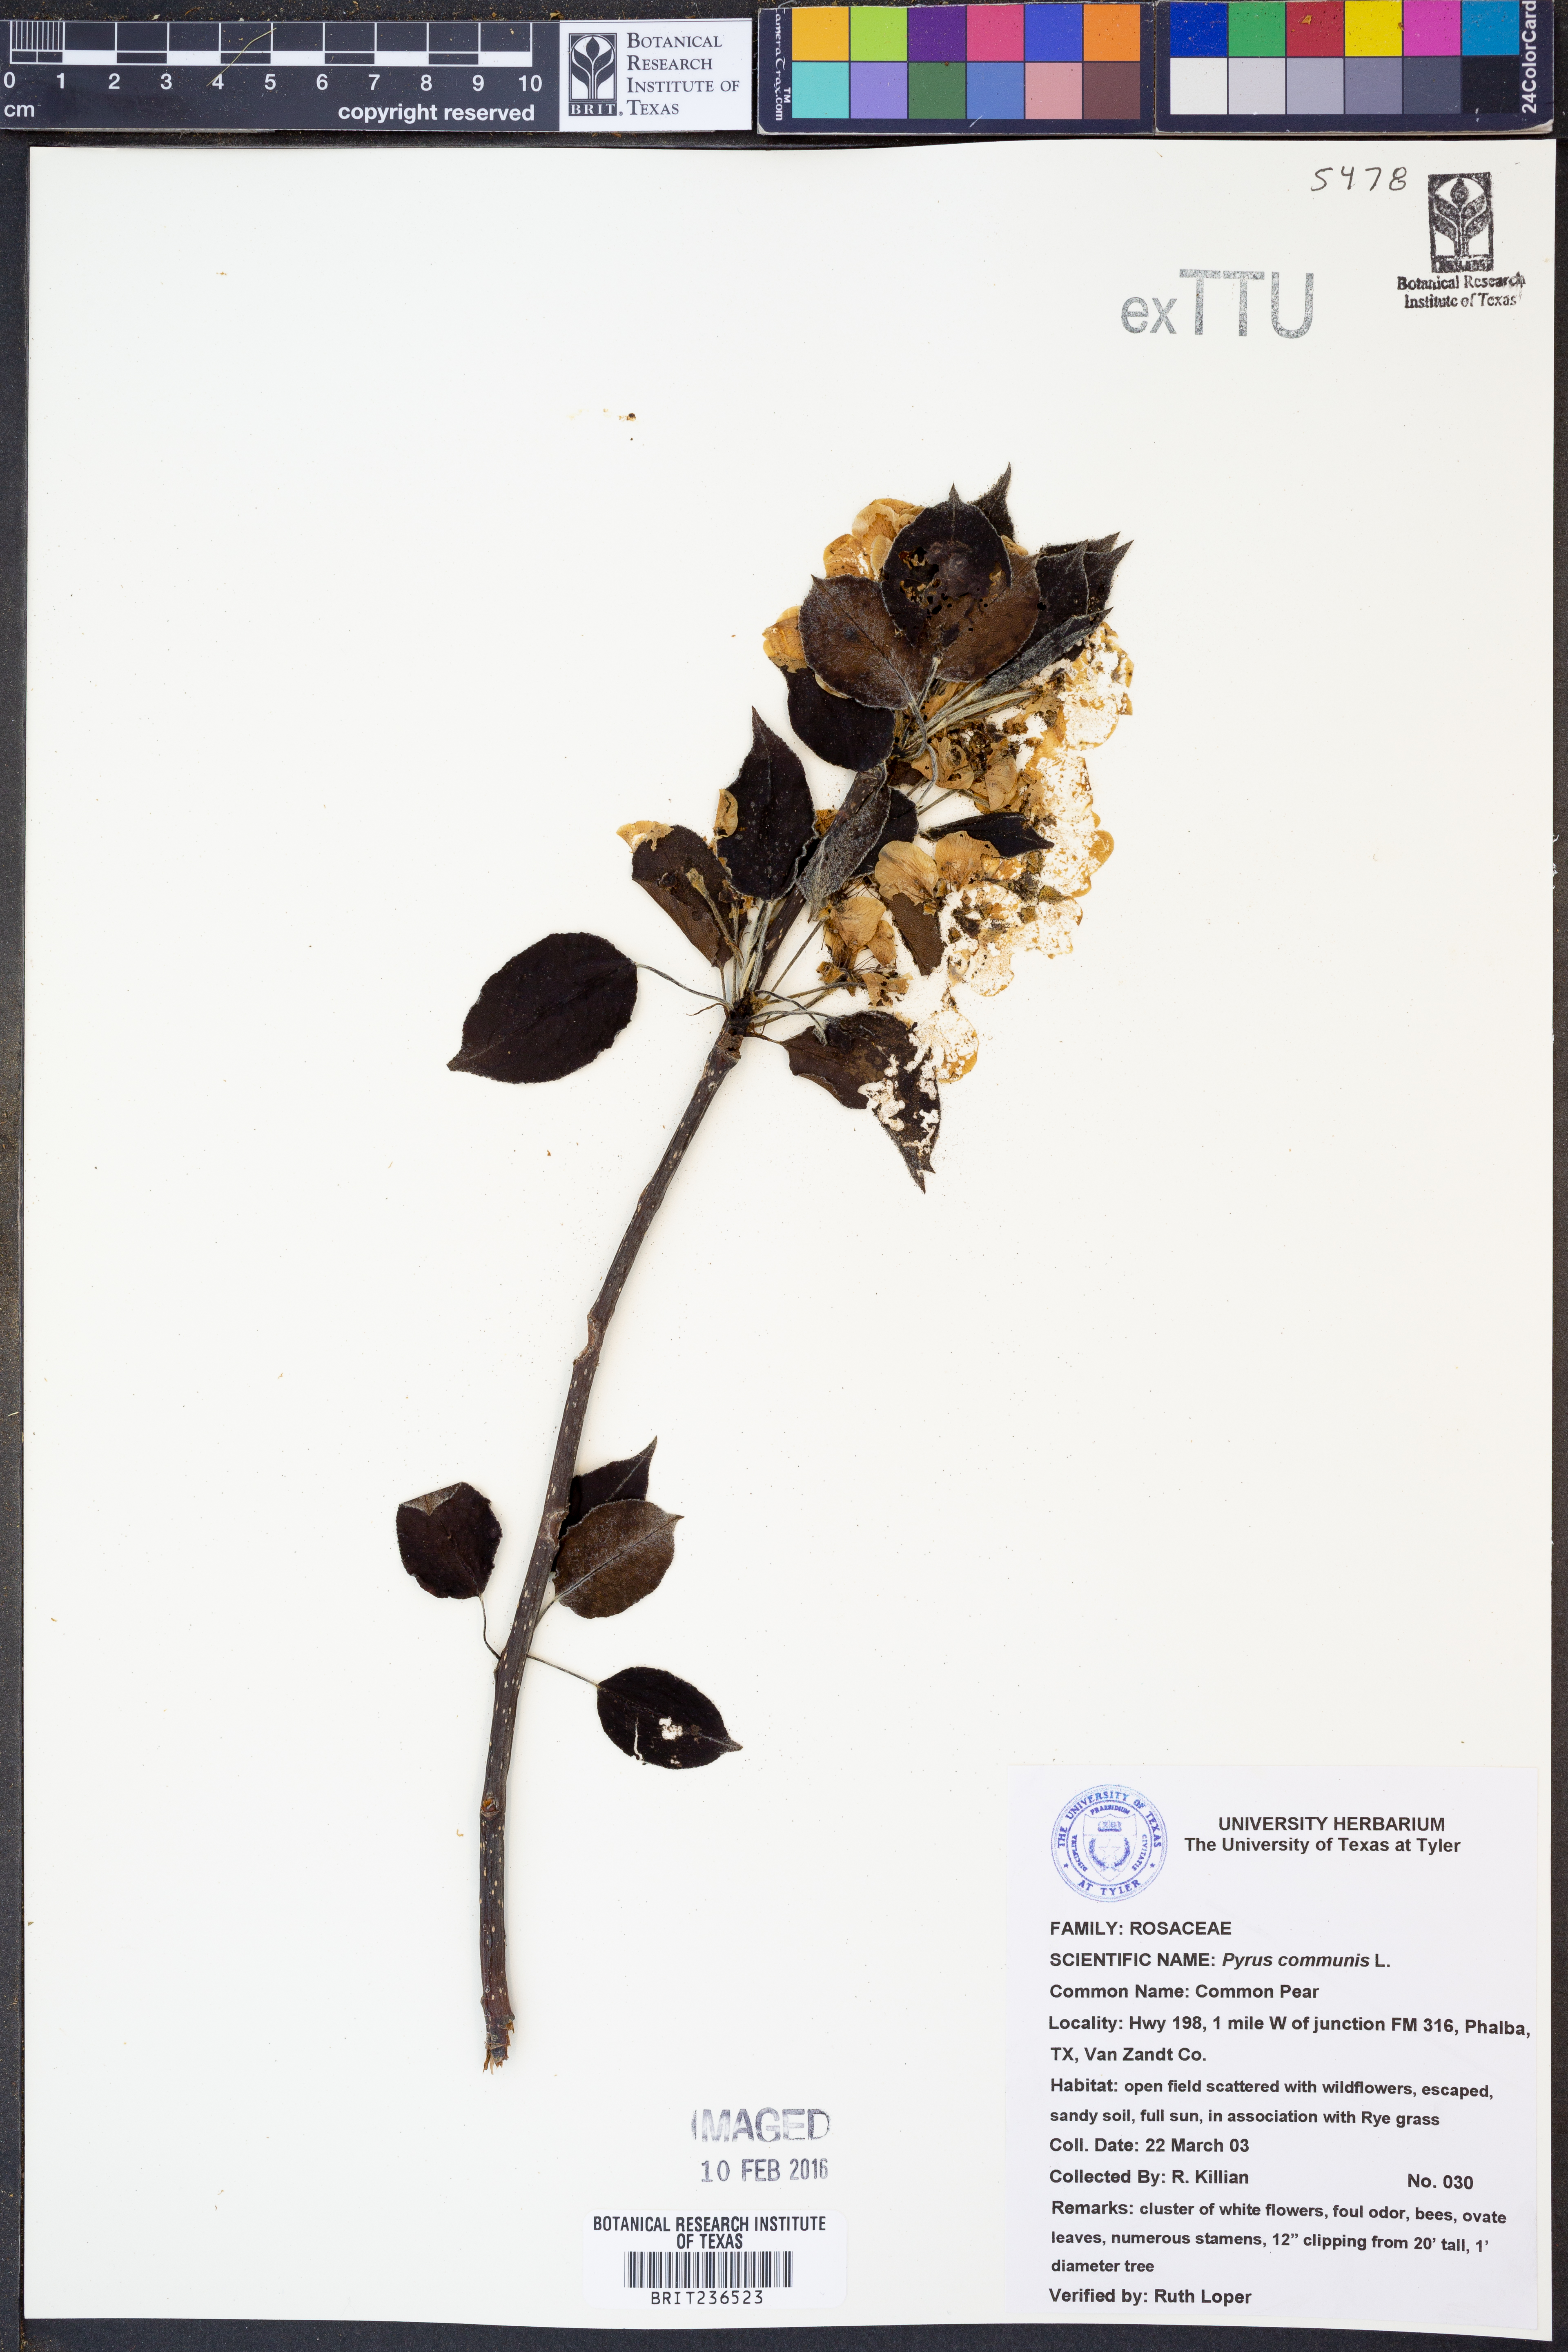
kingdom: Plantae
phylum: Tracheophyta
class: Magnoliopsida
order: Rosales
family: Rosaceae
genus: Pyrus
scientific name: Pyrus communis
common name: Pear
